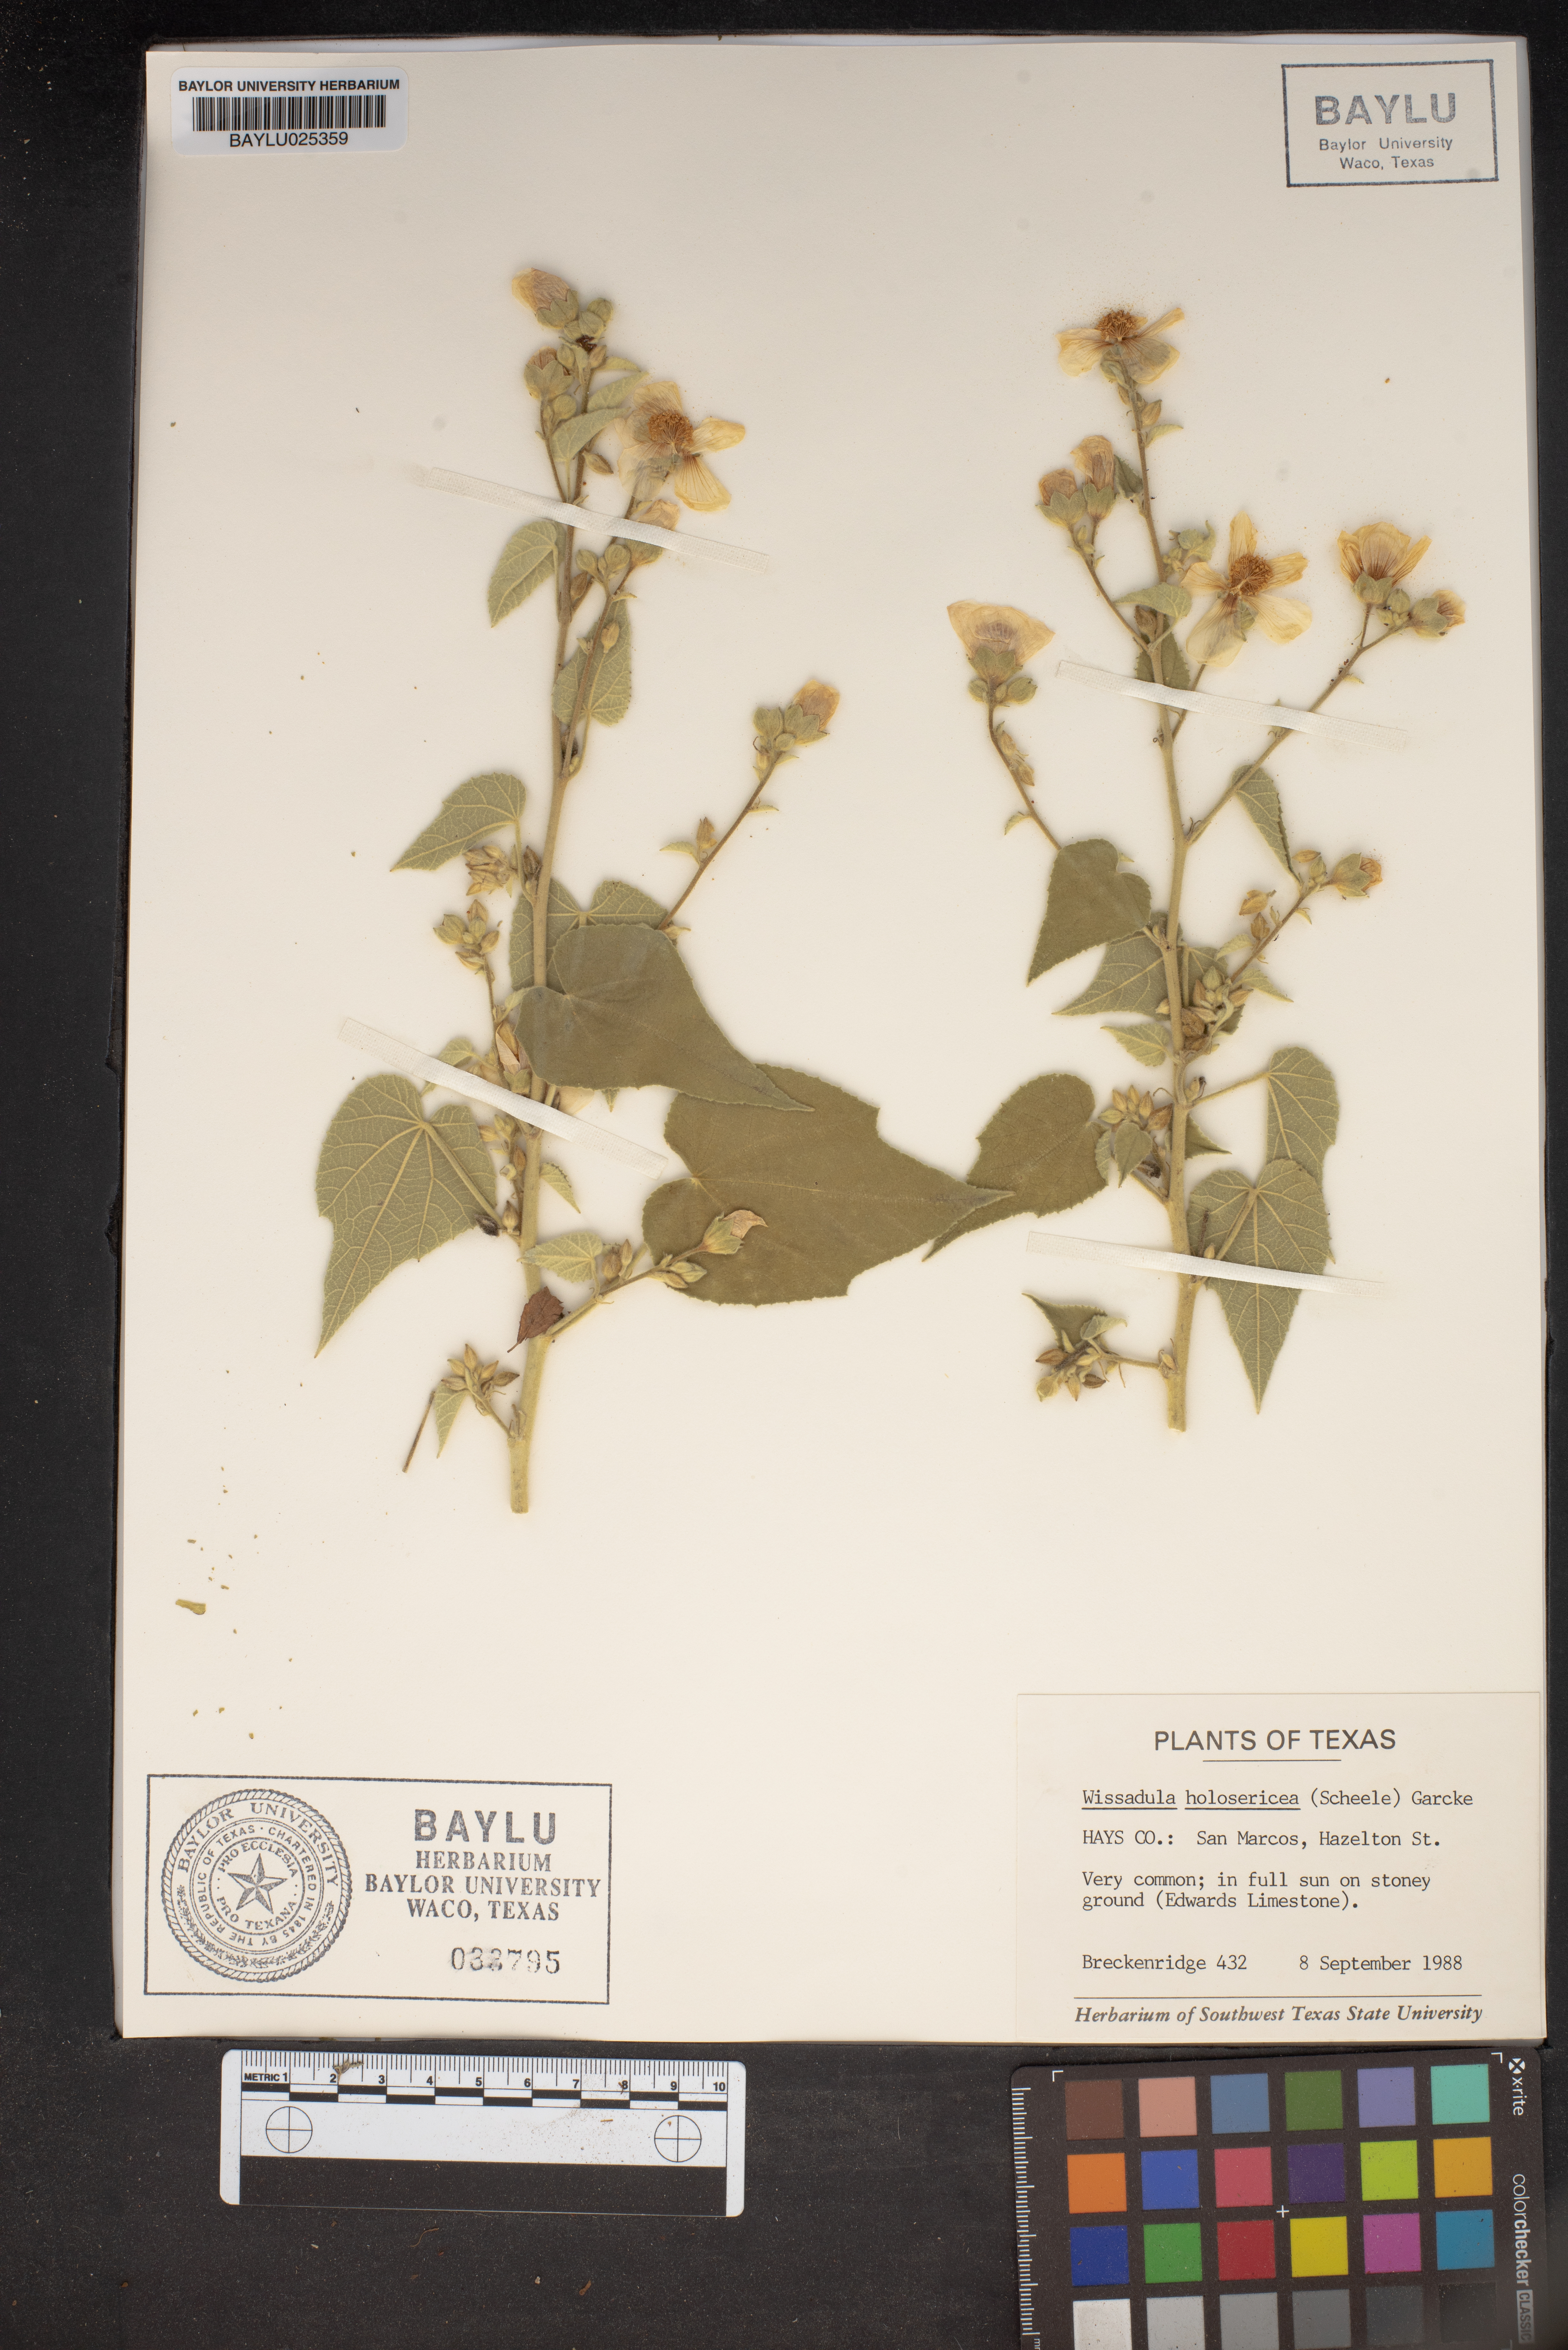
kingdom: Plantae
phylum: Tracheophyta
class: Magnoliopsida
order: Malvales
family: Malvaceae
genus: Allowissadula
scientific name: Allowissadula holosericea
